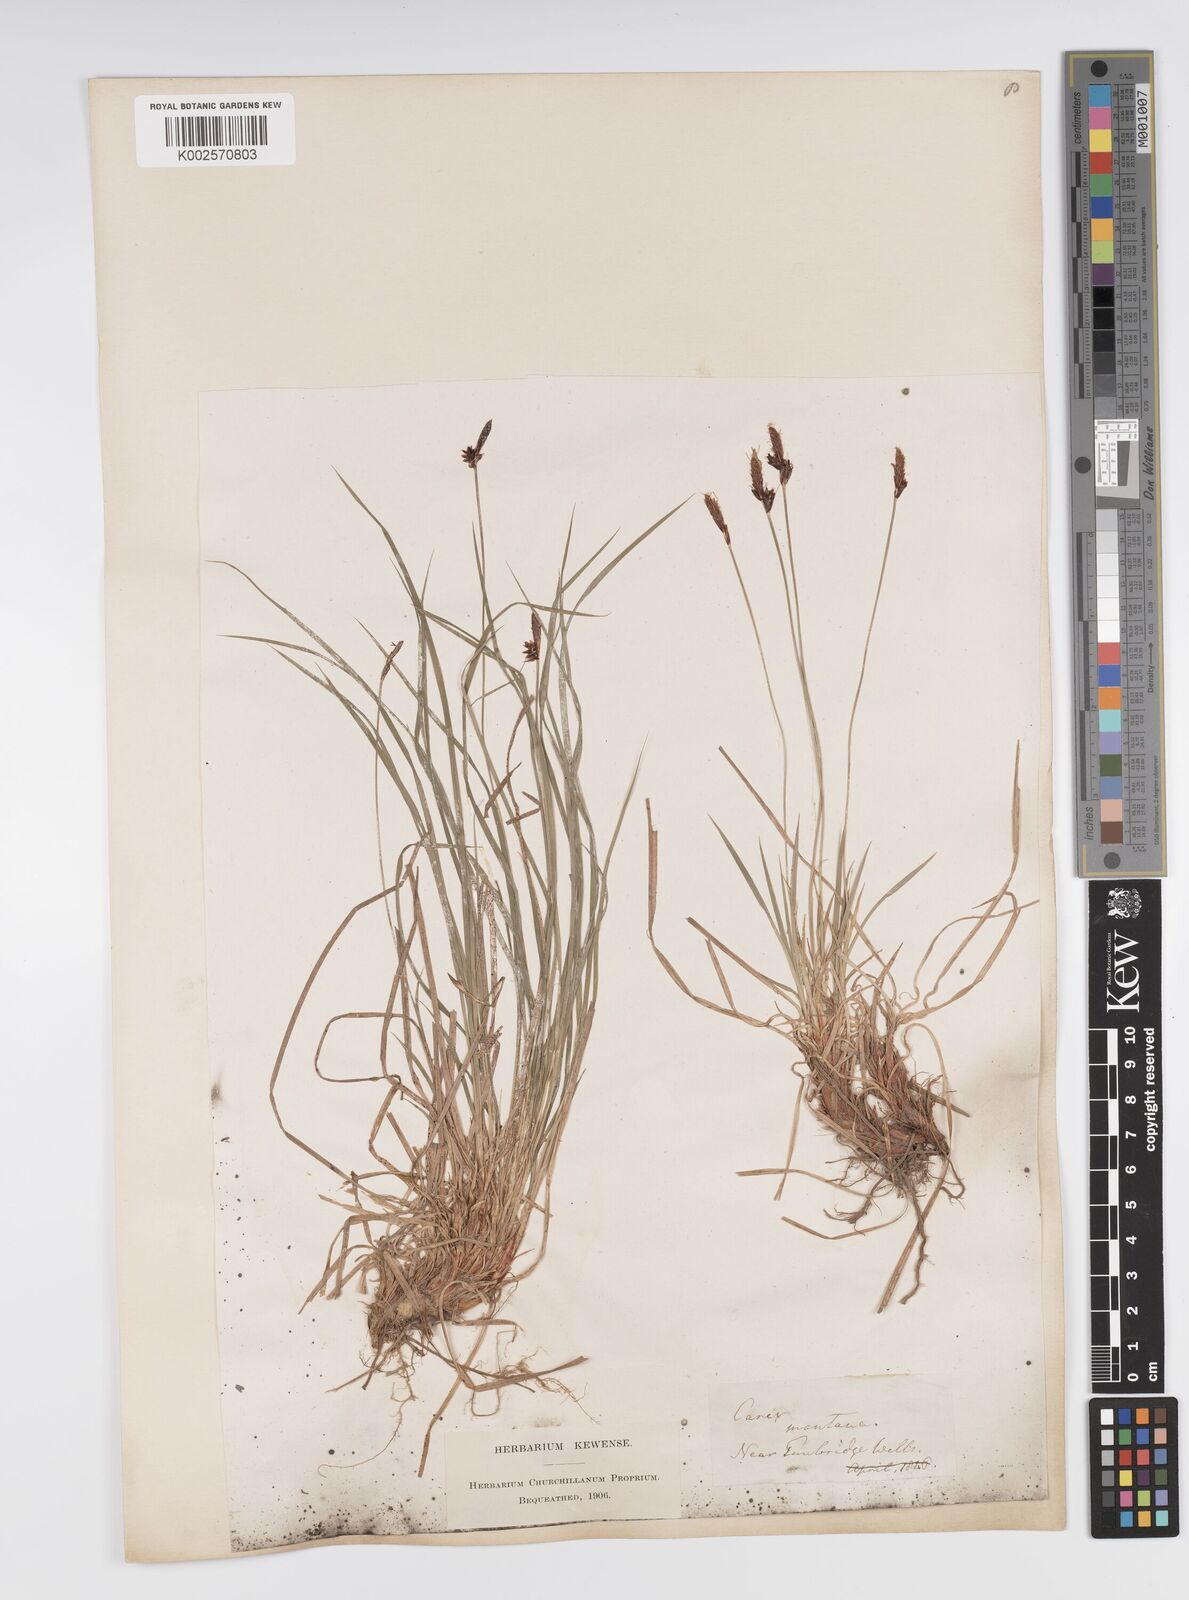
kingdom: Plantae
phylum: Tracheophyta
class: Liliopsida
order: Poales
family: Cyperaceae
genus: Carex
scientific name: Carex montana
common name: Soft-leaved sedge
